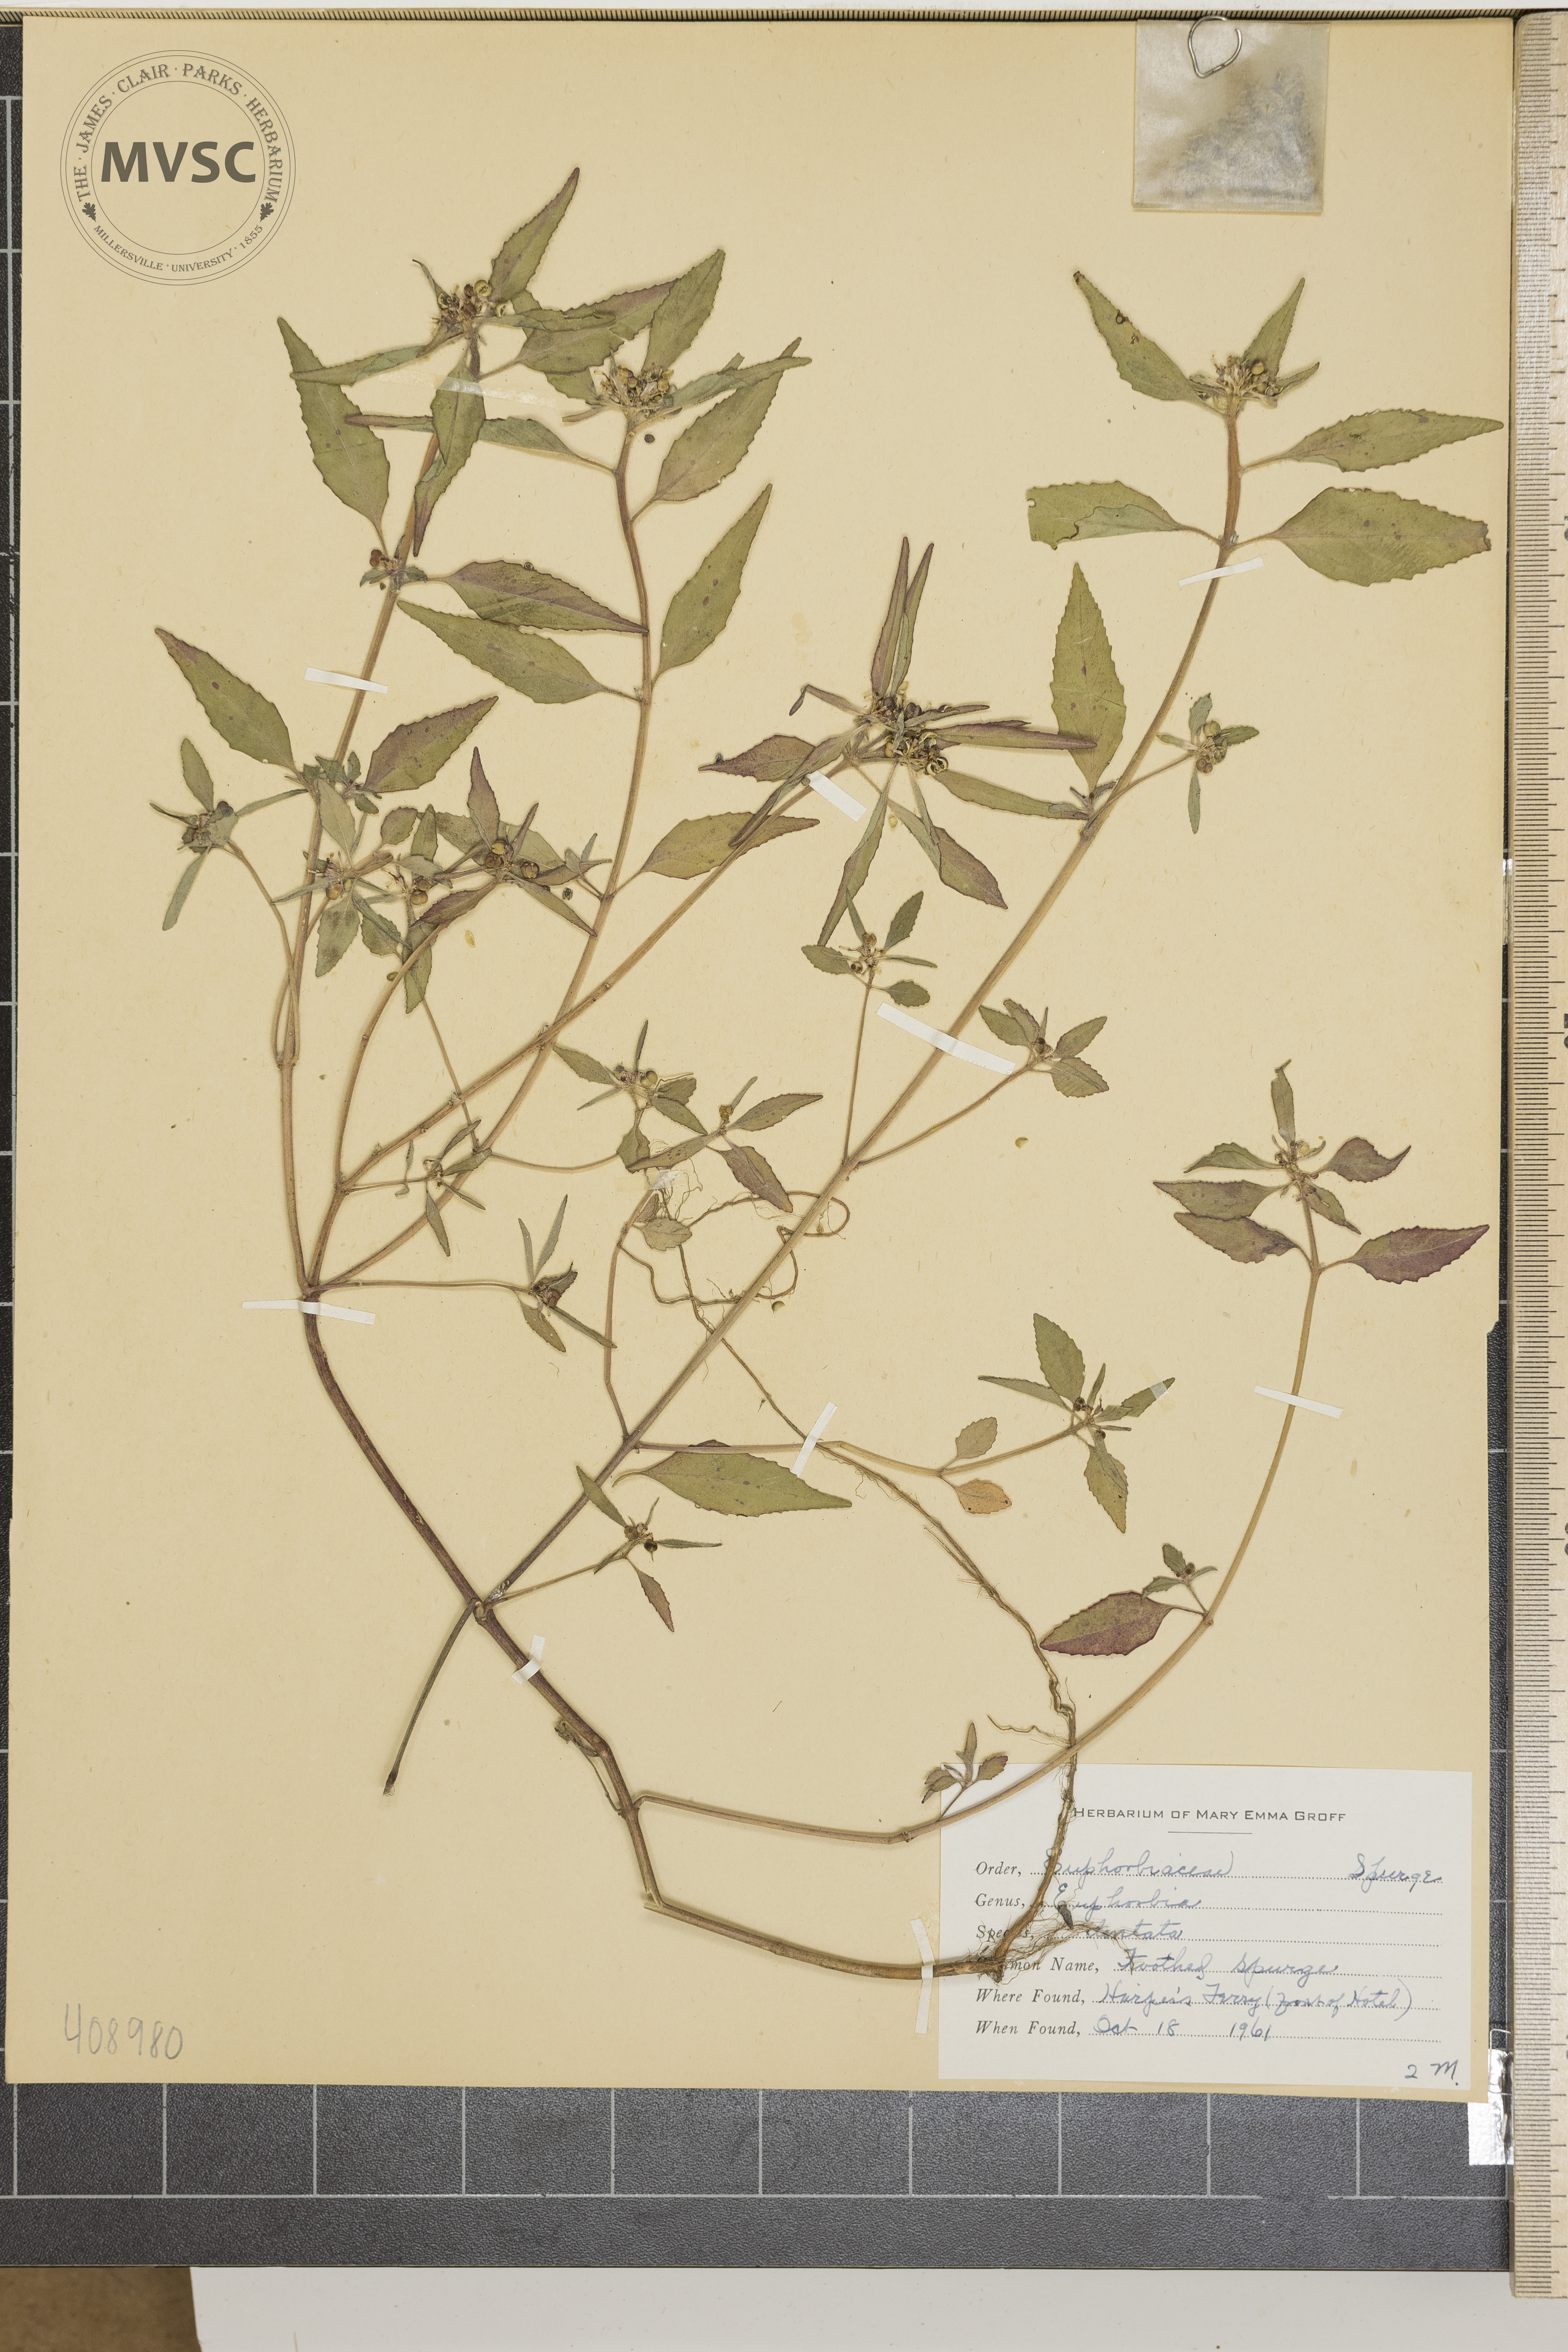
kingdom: Plantae
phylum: Tracheophyta
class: Magnoliopsida
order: Malpighiales
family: Euphorbiaceae
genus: Euphorbia
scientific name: Euphorbia dentata
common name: Toothed Spurge
